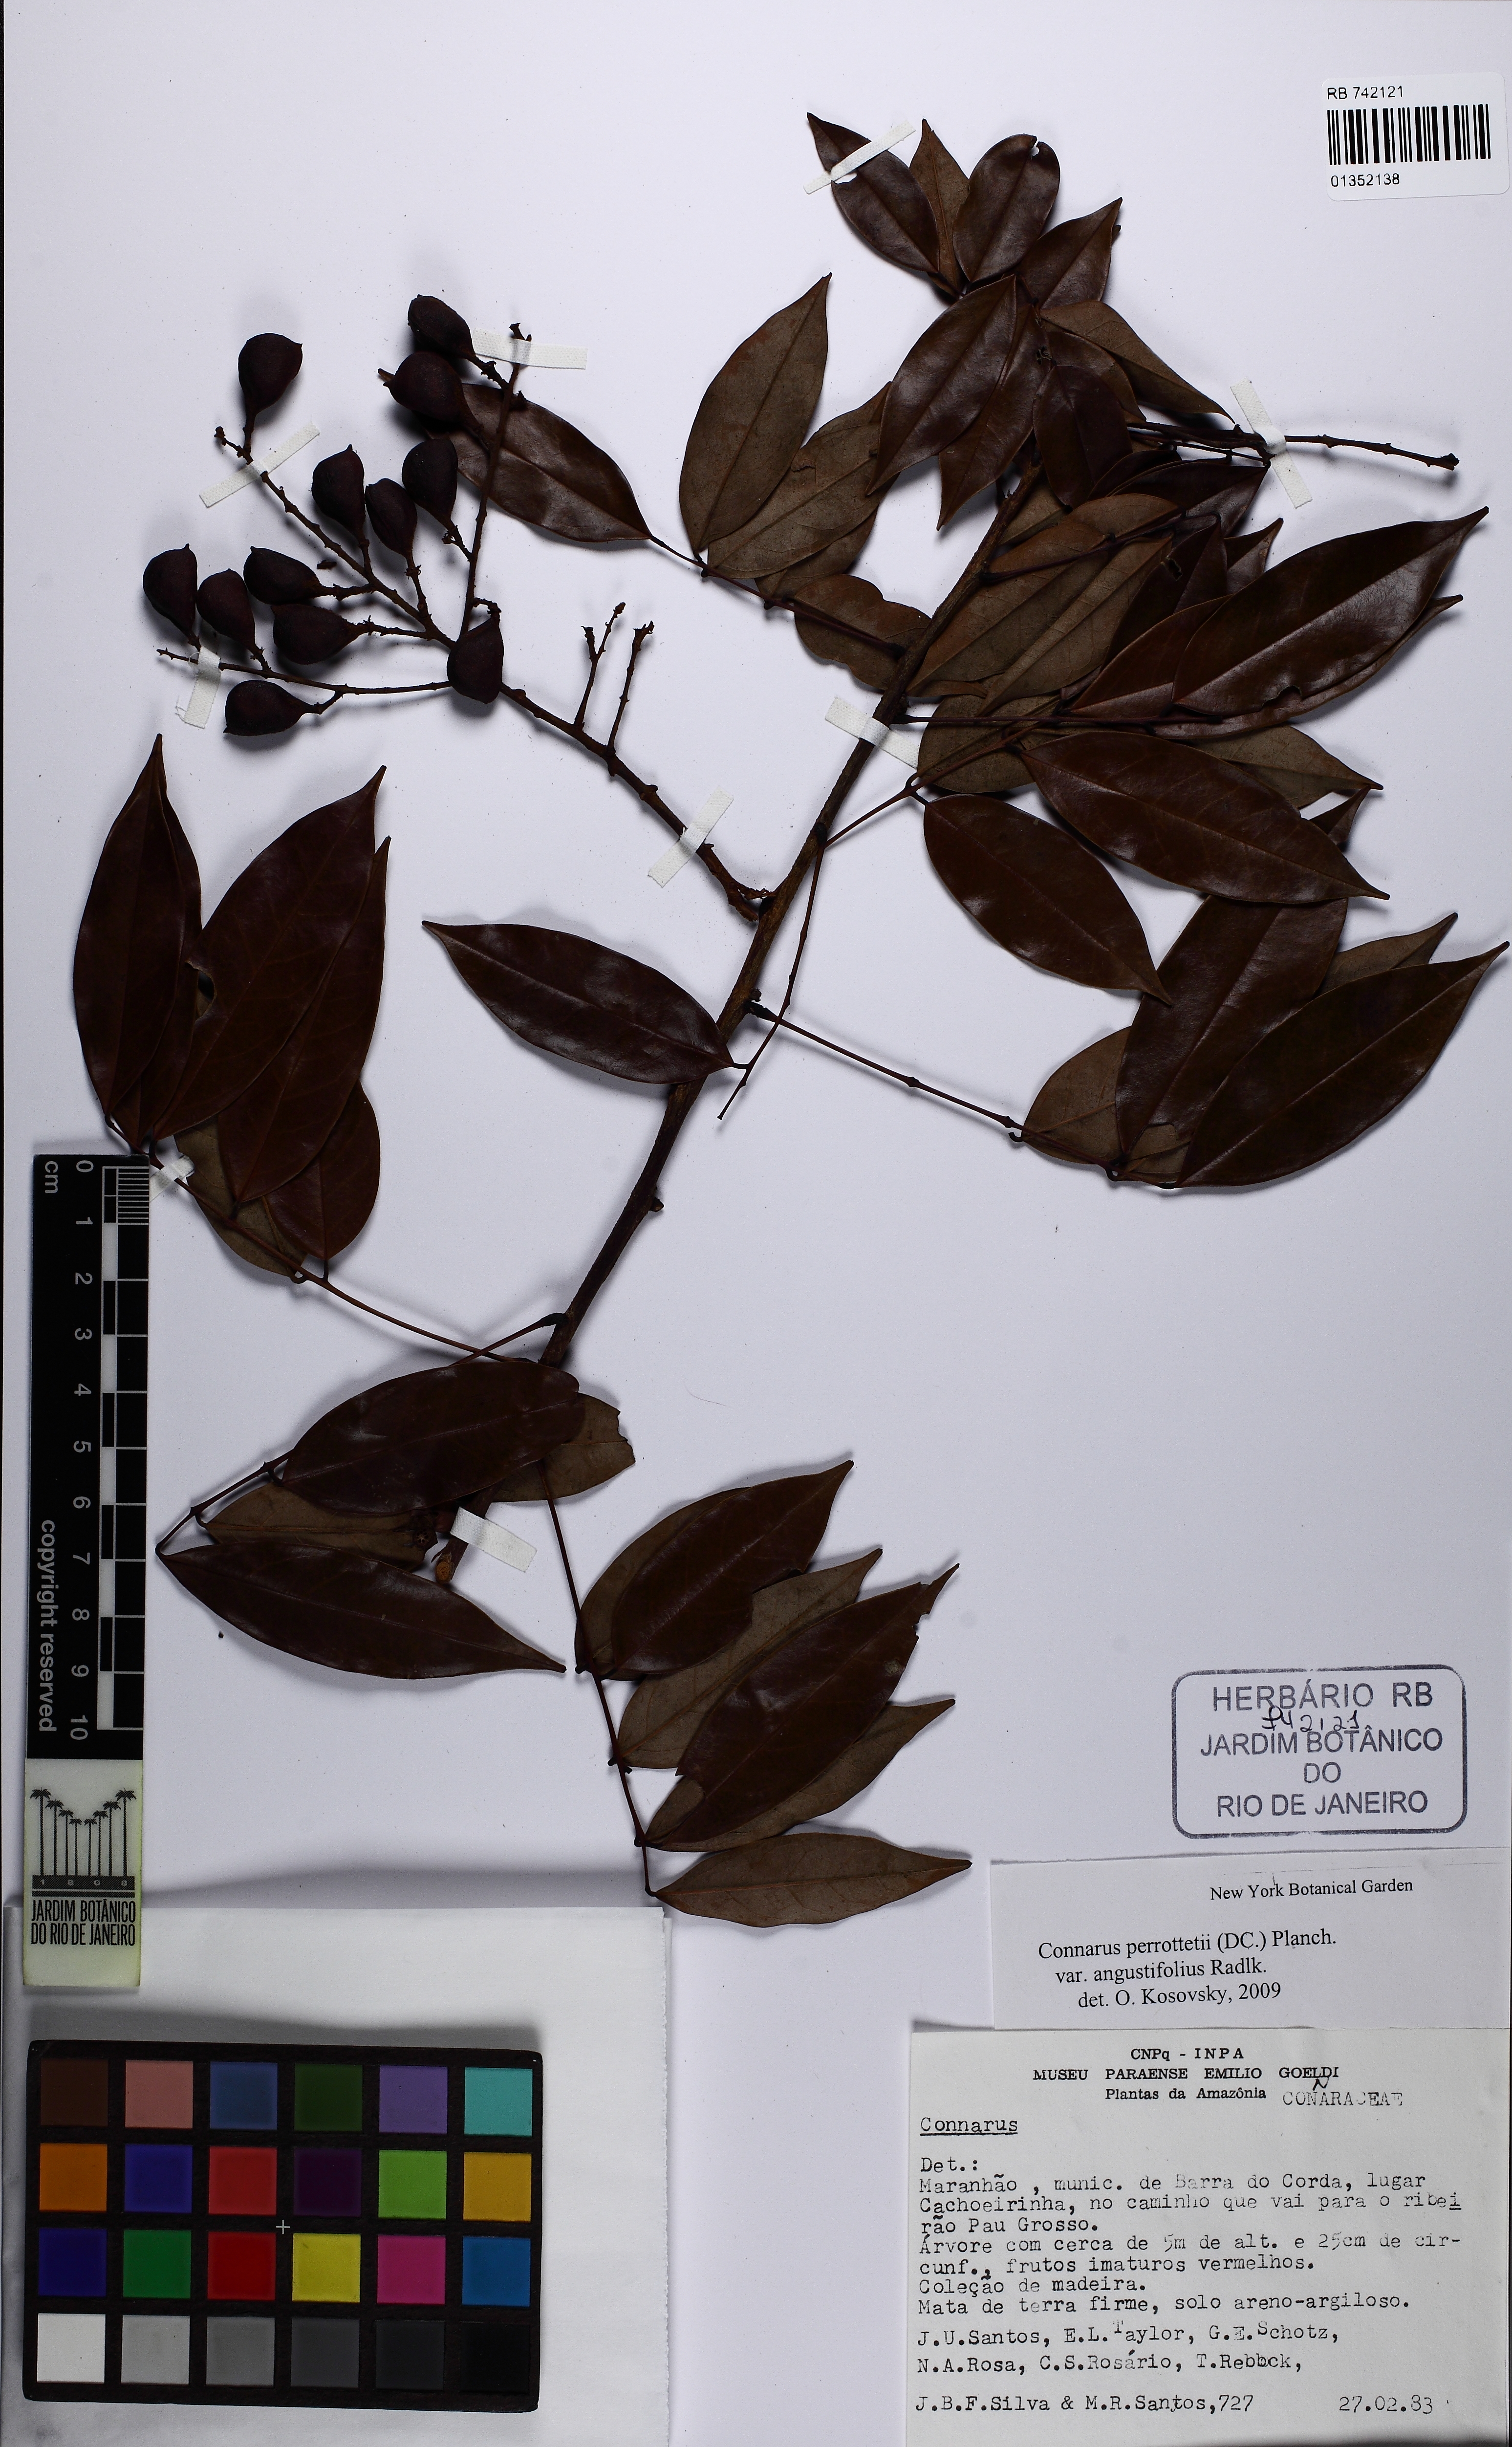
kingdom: Plantae
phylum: Tracheophyta
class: Magnoliopsida
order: Oxalidales
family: Connaraceae
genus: Connarus
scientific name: Connarus perrottetii
